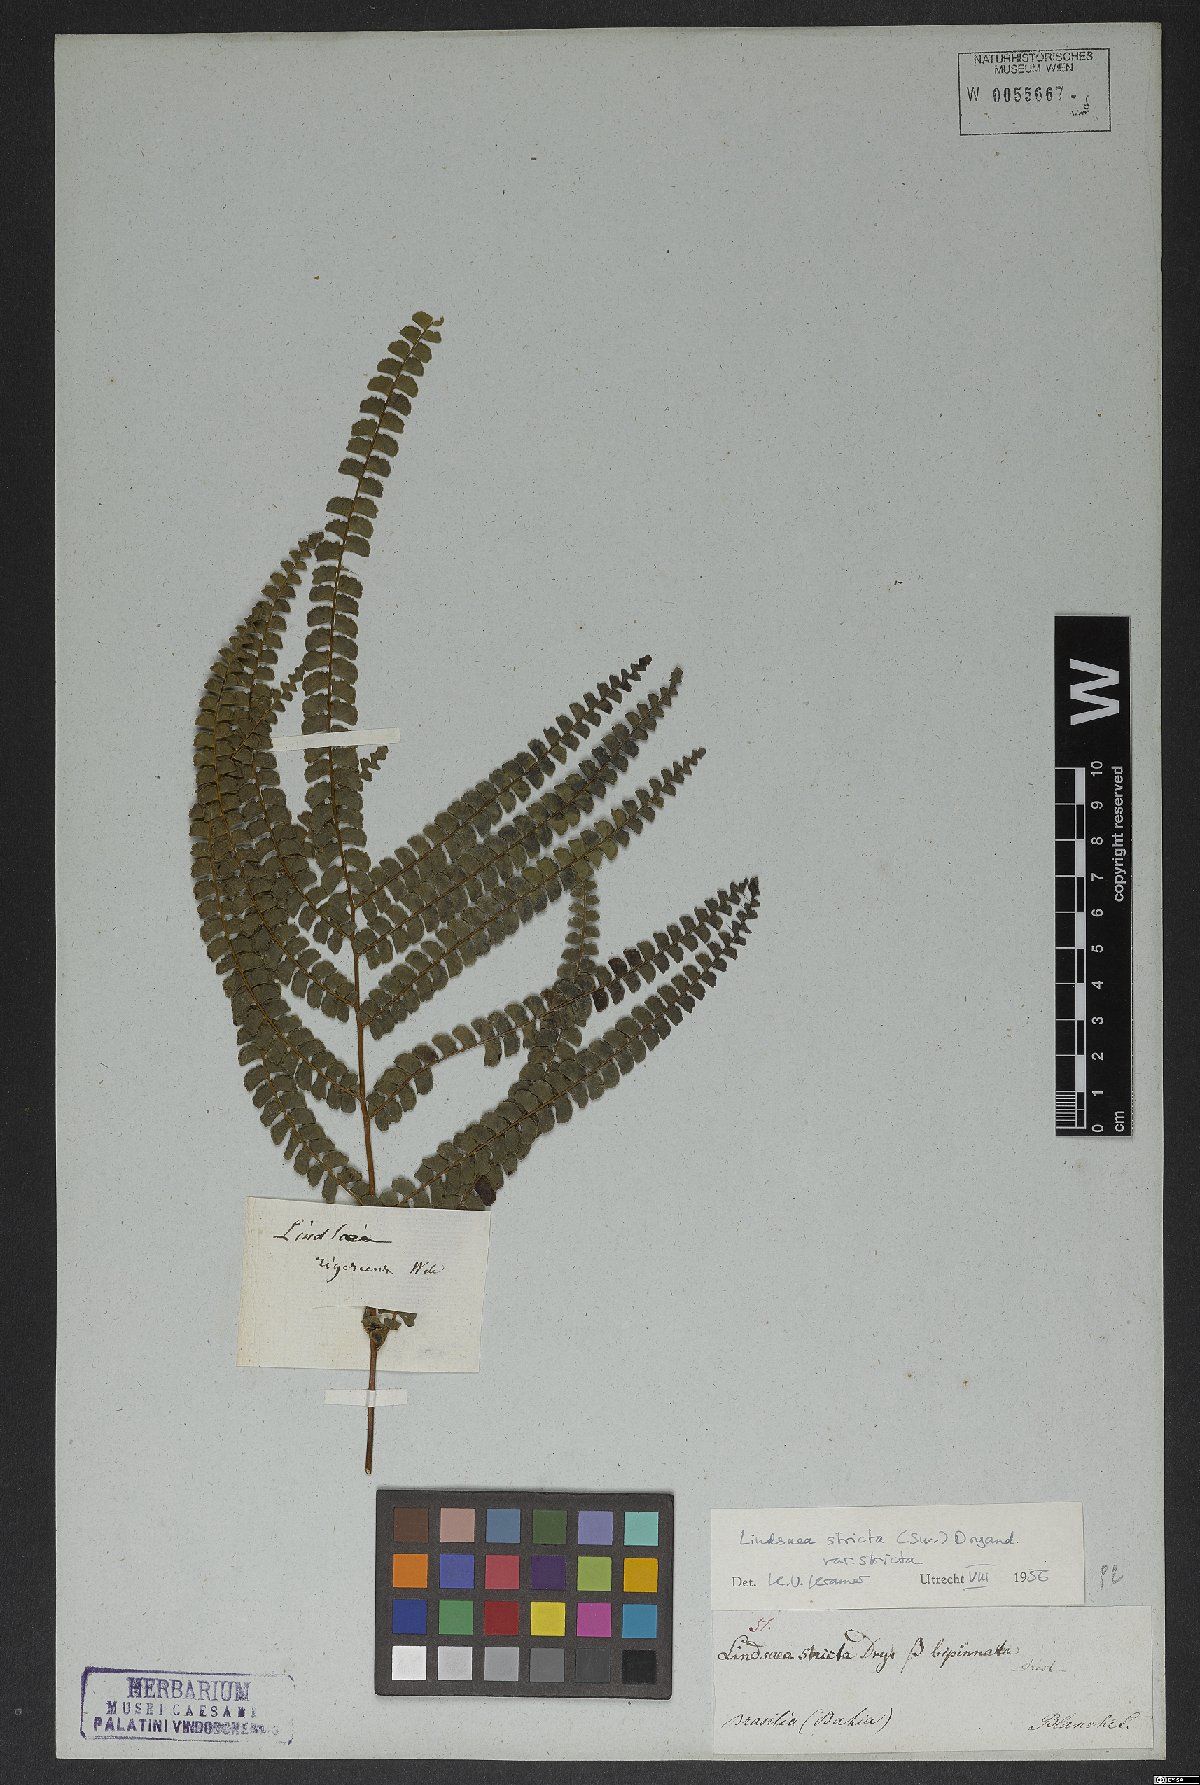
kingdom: Plantae
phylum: Tracheophyta
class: Polypodiopsida
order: Polypodiales
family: Lindsaeaceae
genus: Lindsaea
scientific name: Lindsaea stricta
